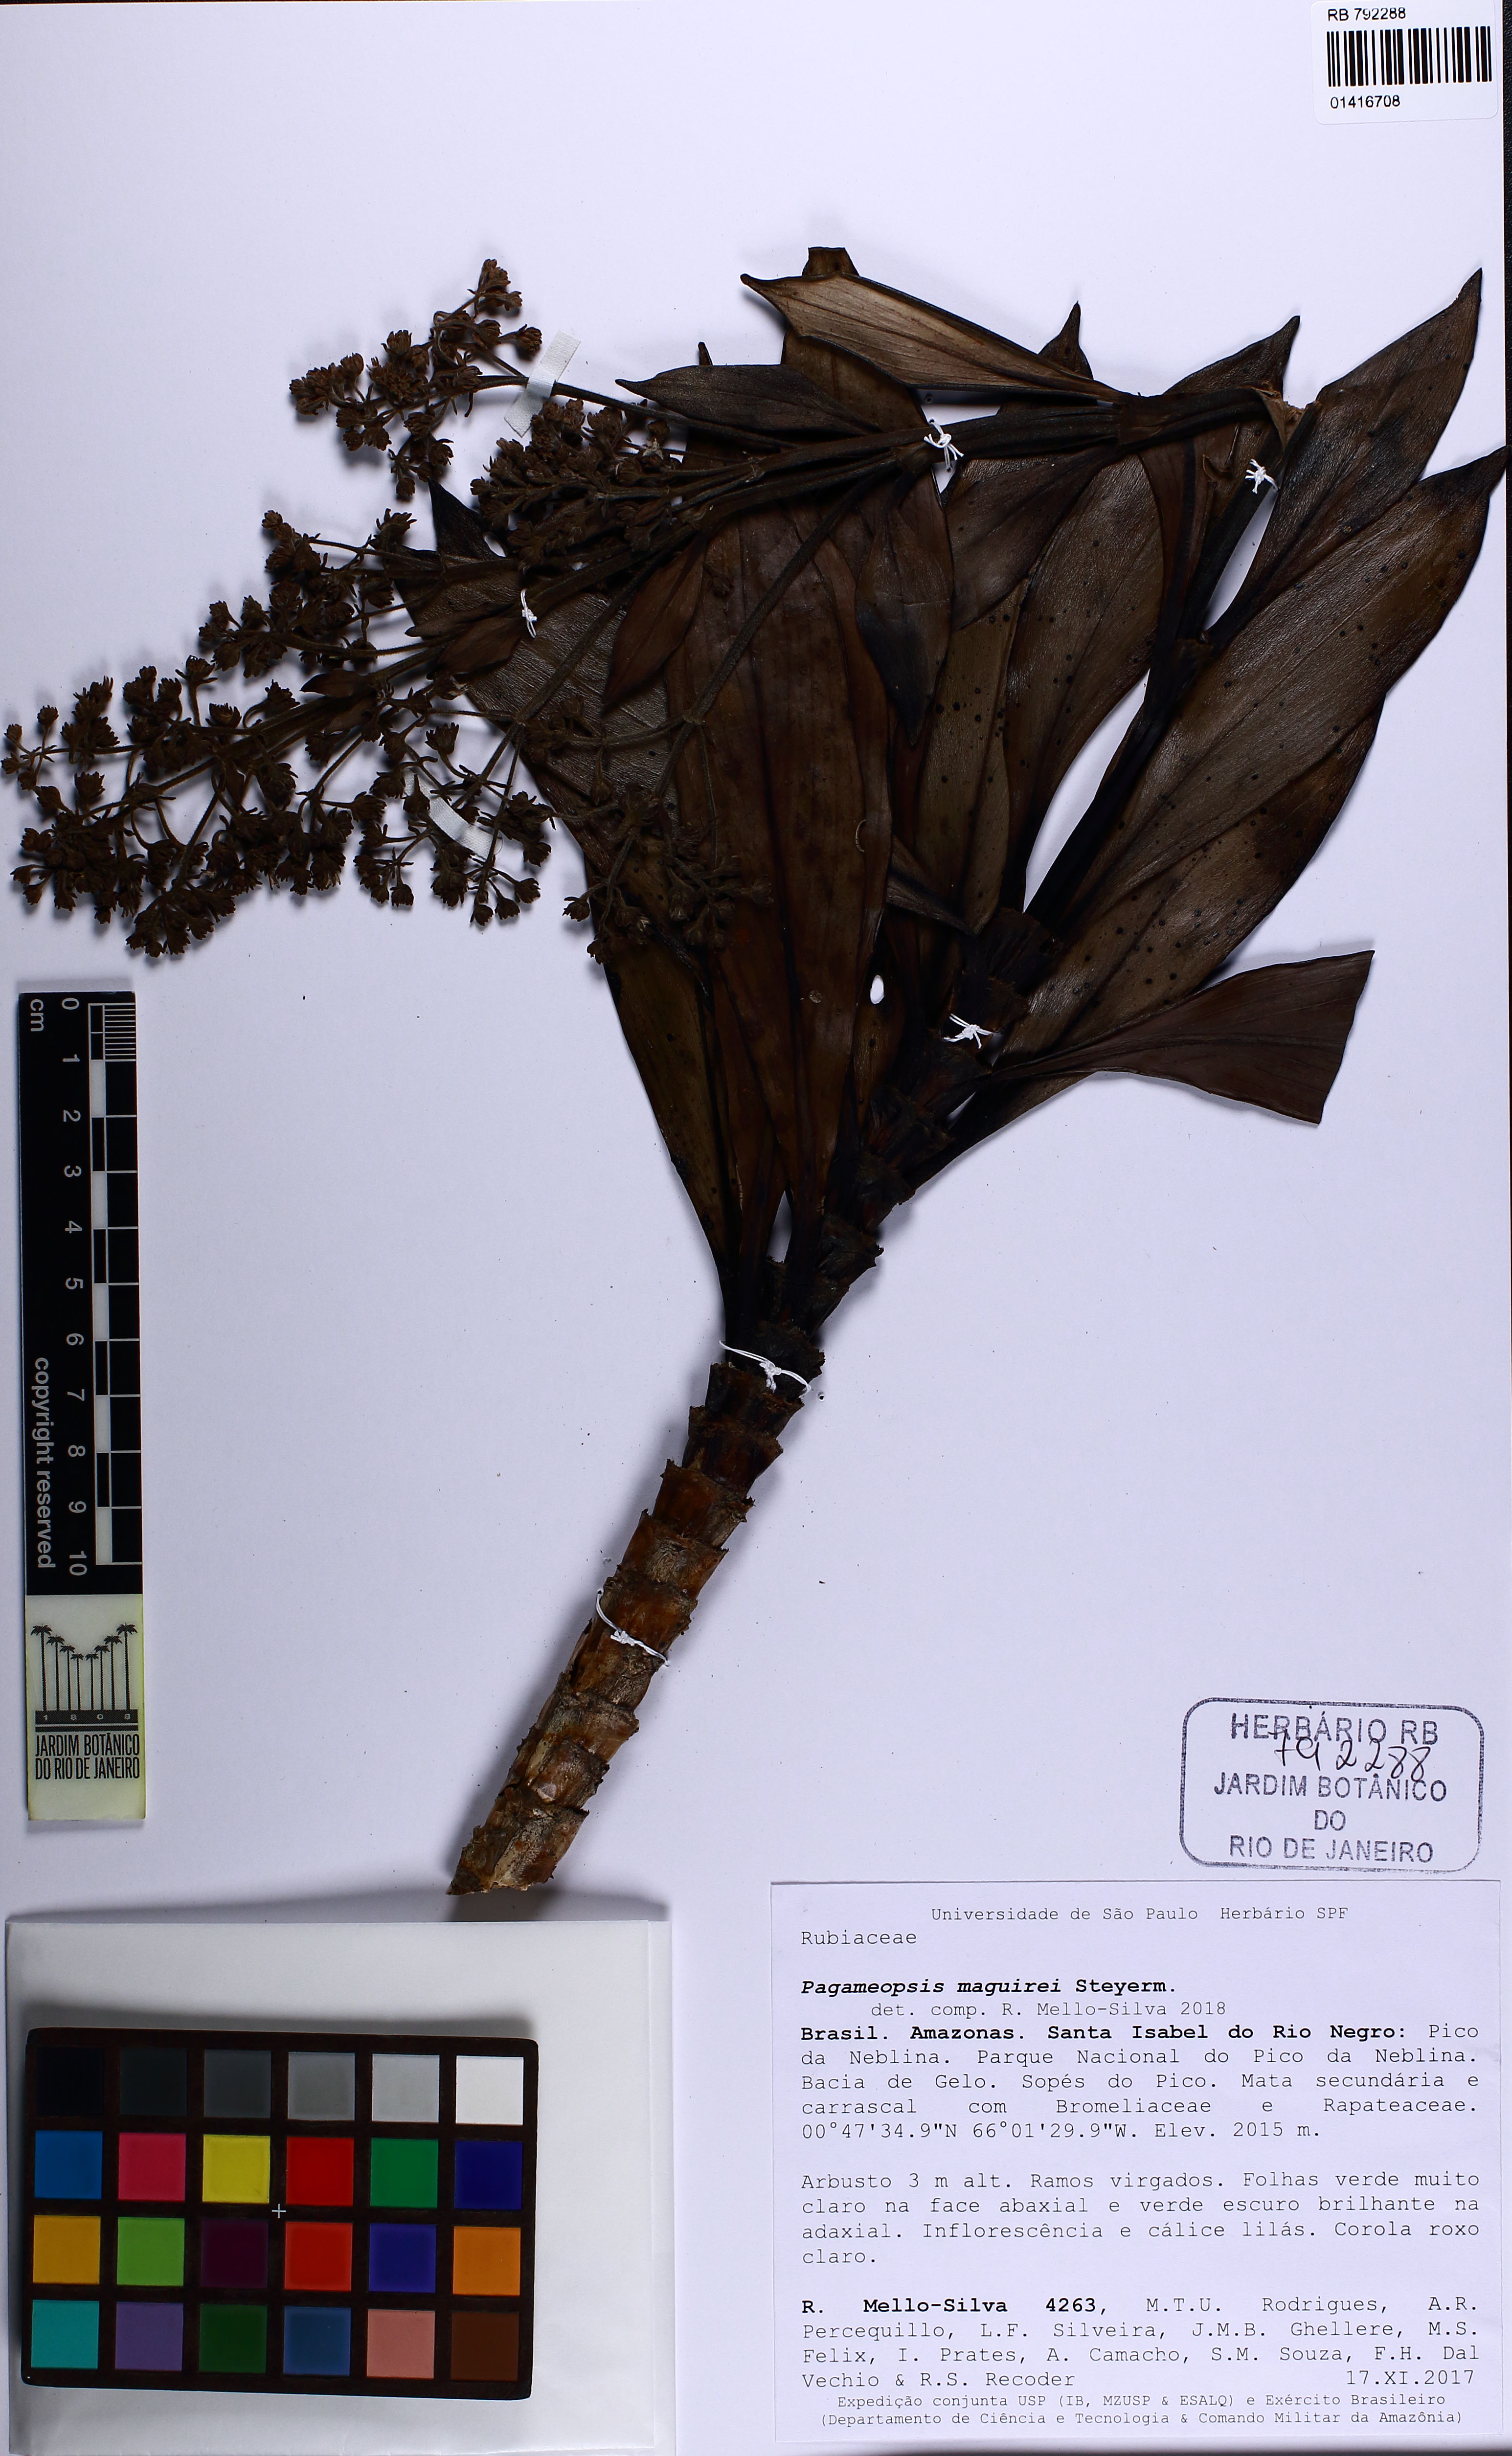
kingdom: Plantae
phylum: Tracheophyta
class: Magnoliopsida
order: Gentianales
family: Rubiaceae
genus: Pagameopsis
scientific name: Pagameopsis maguirei
